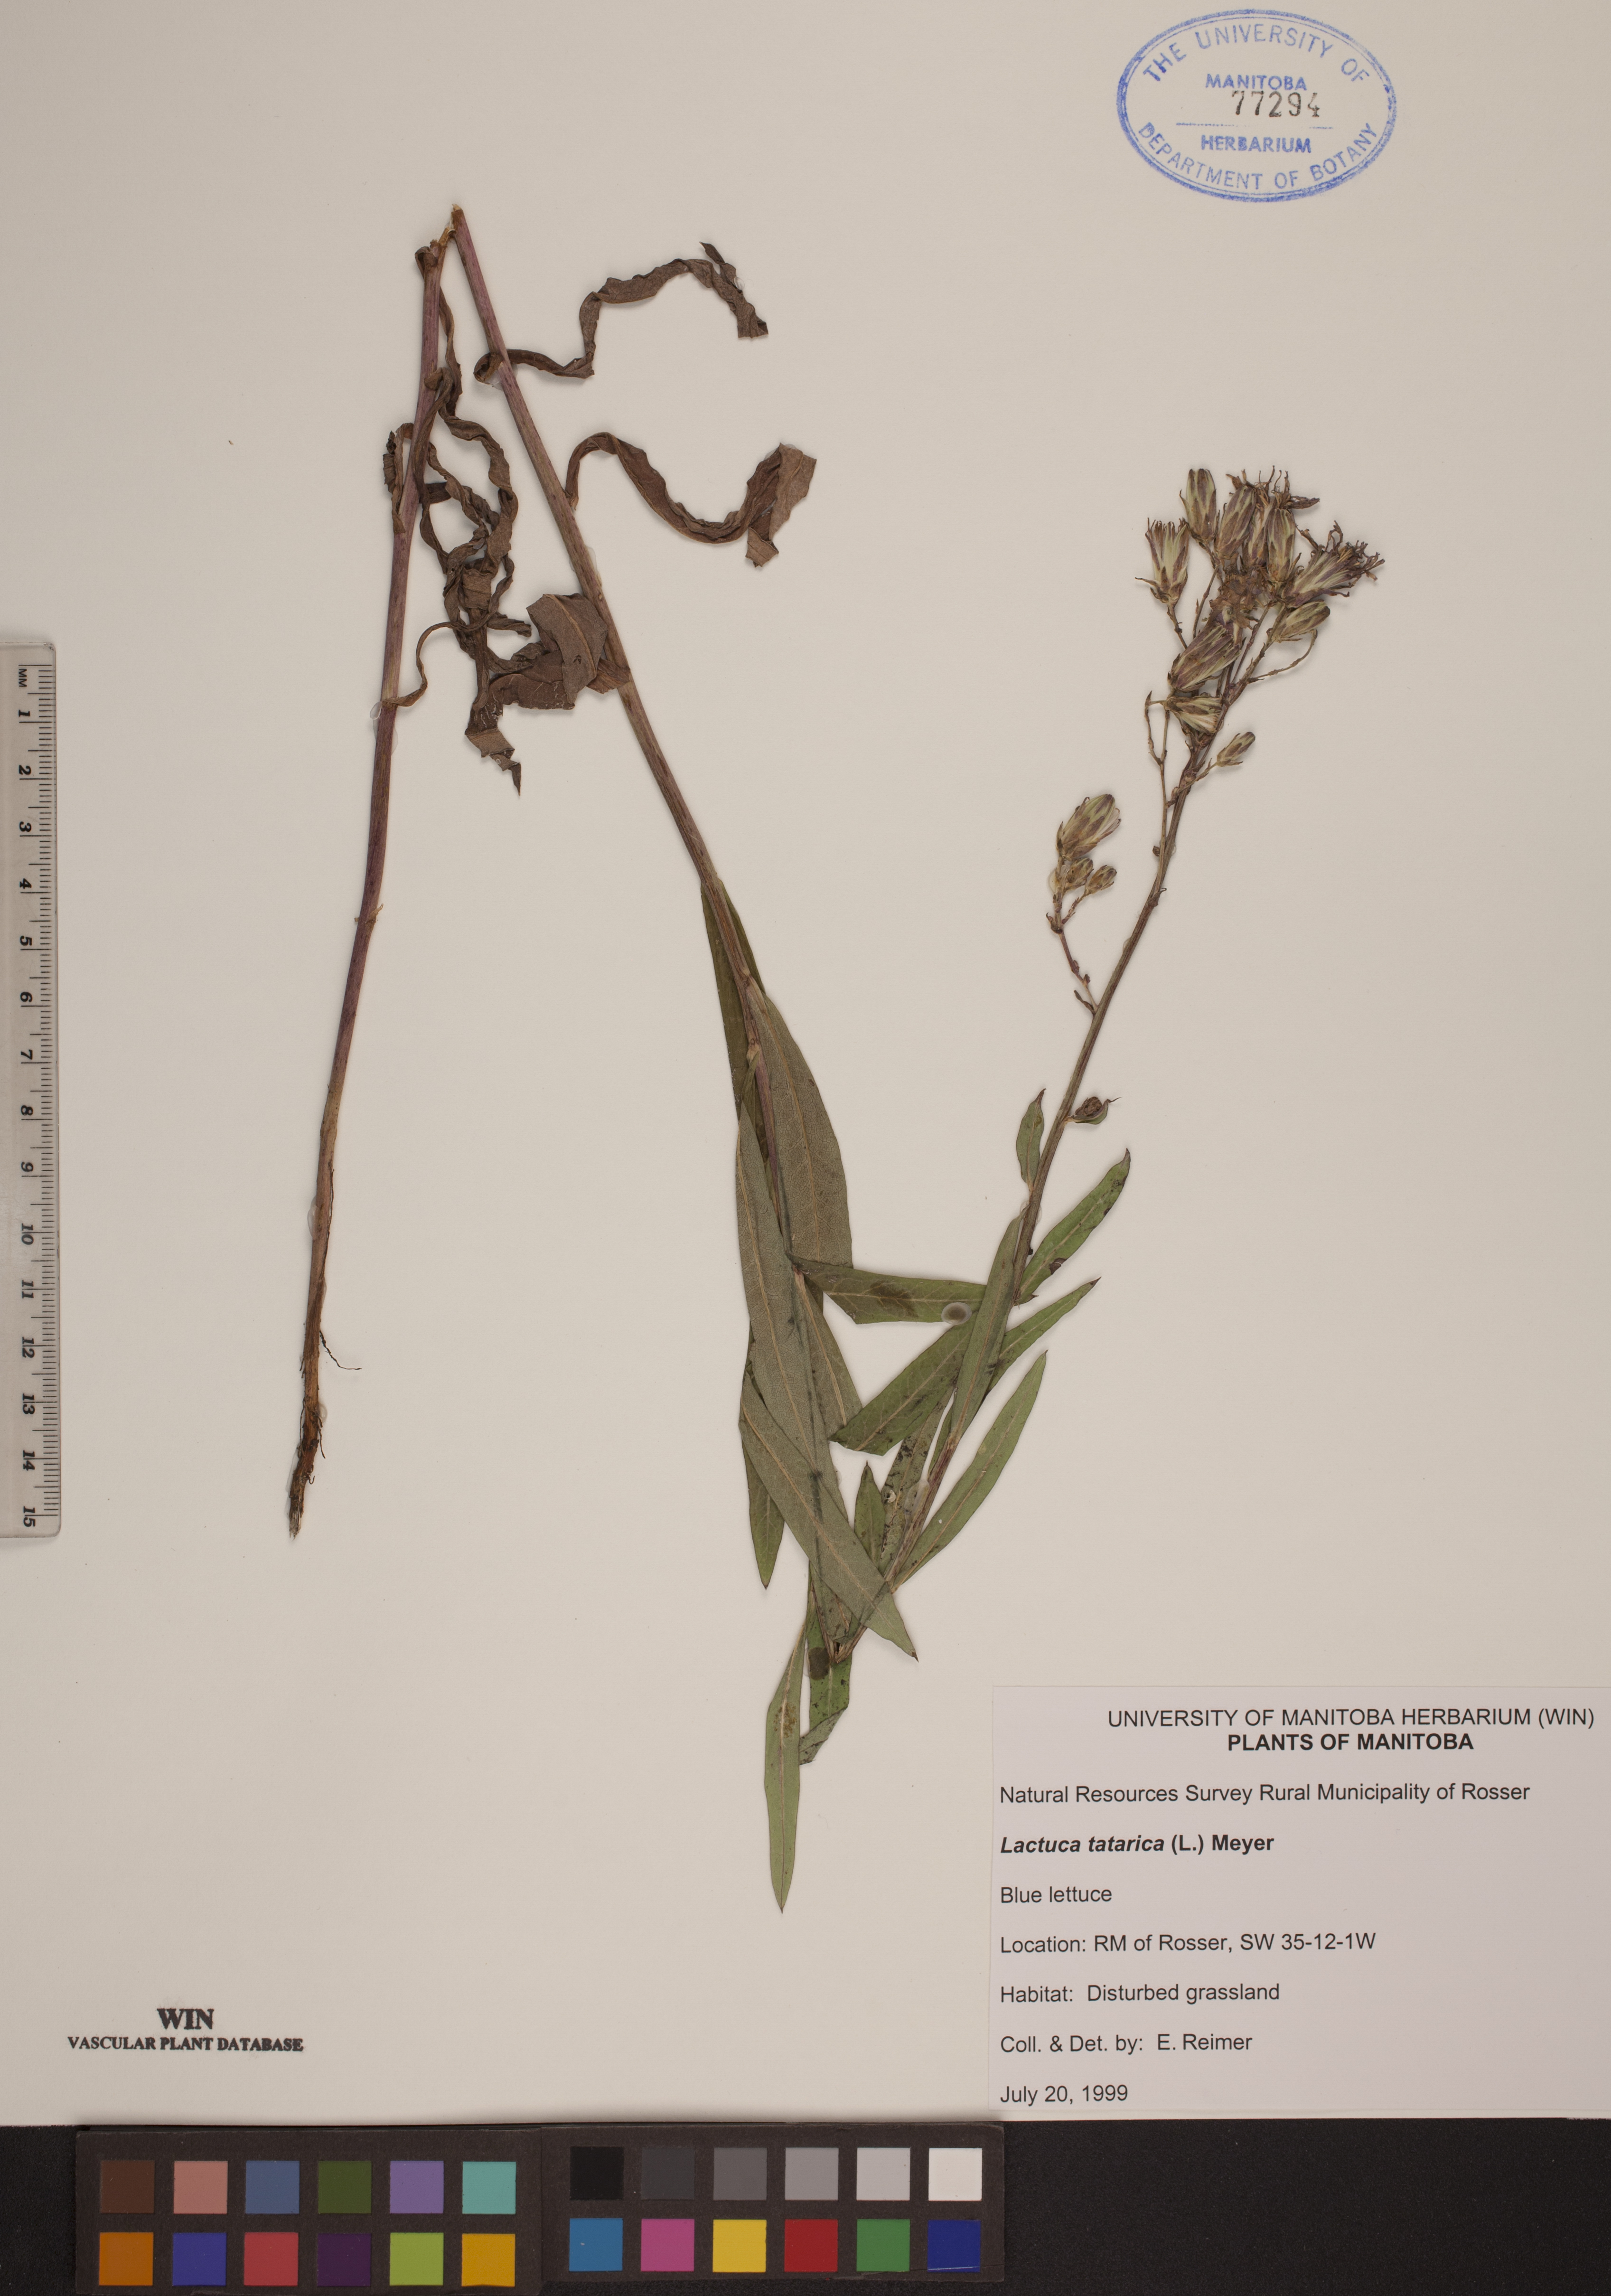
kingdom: Plantae
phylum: Tracheophyta
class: Magnoliopsida
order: Asterales
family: Asteraceae
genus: Lactuca
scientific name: Lactuca tatarica
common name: Blue lettuce
